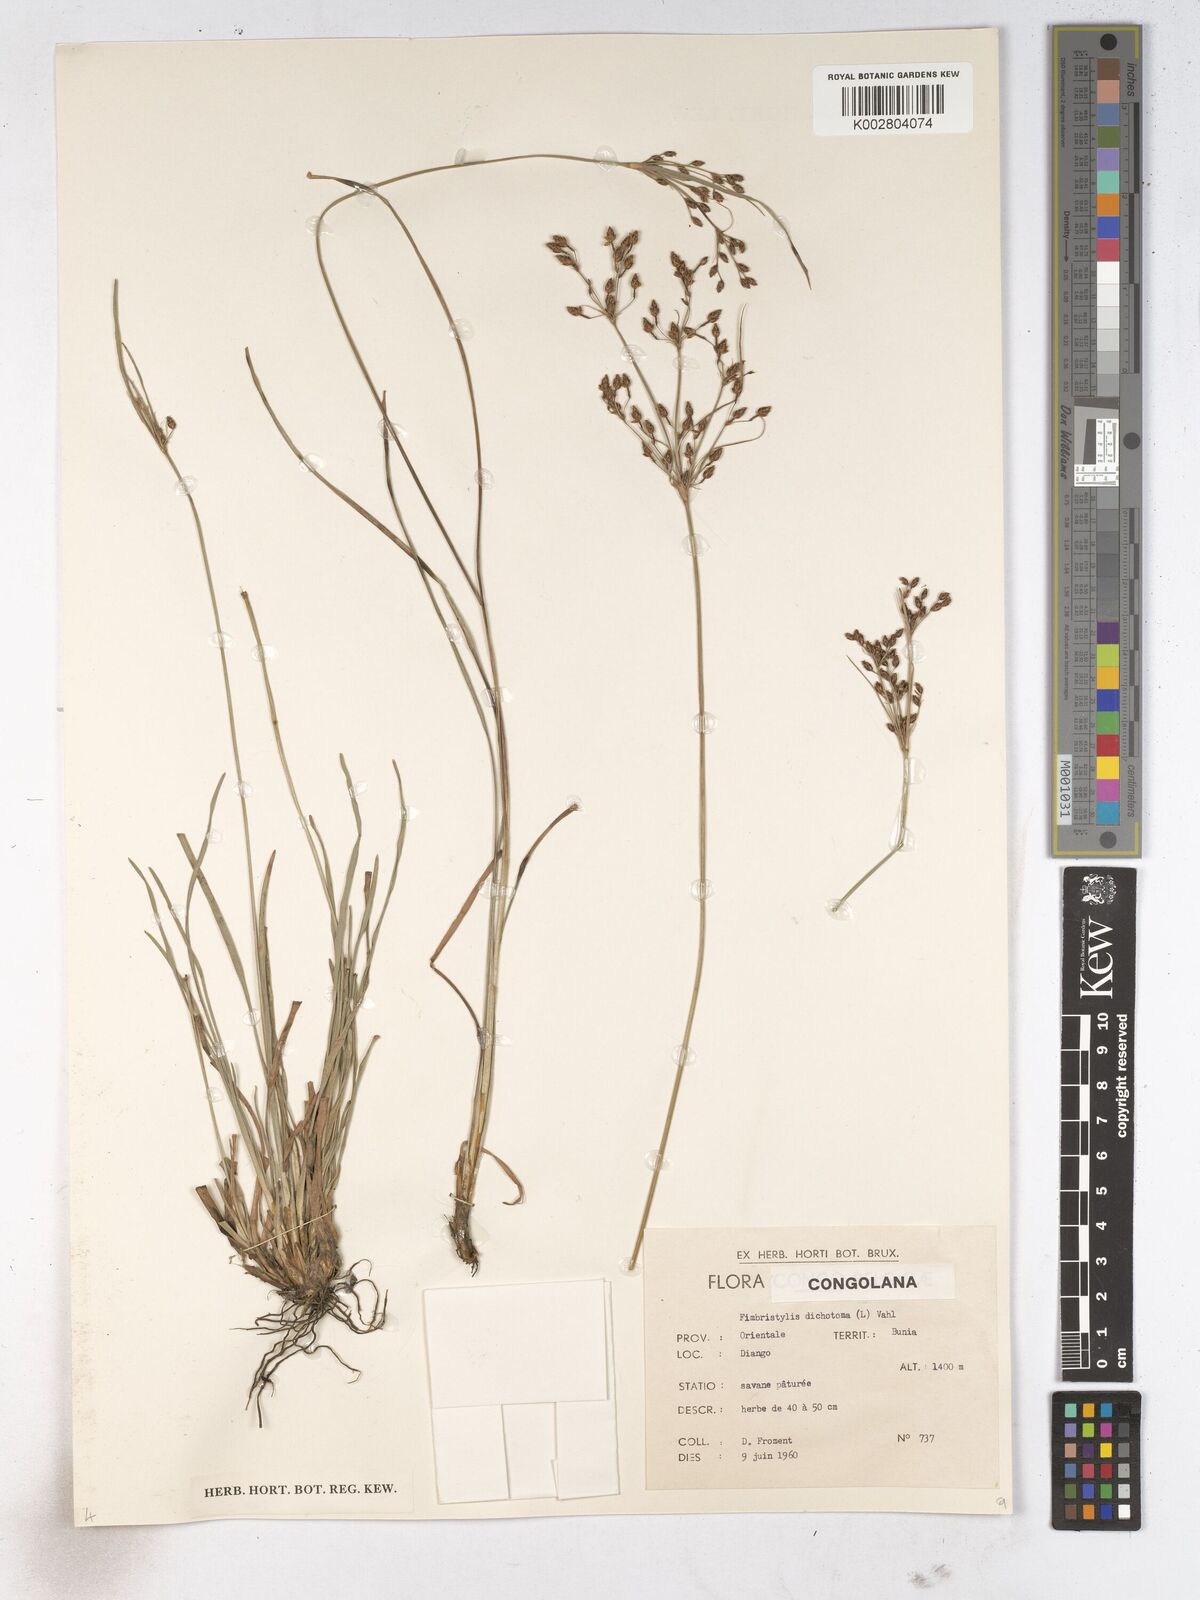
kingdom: Plantae
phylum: Tracheophyta
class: Liliopsida
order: Poales
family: Cyperaceae
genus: Fimbristylis
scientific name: Fimbristylis dichotoma
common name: Forked fimbry
